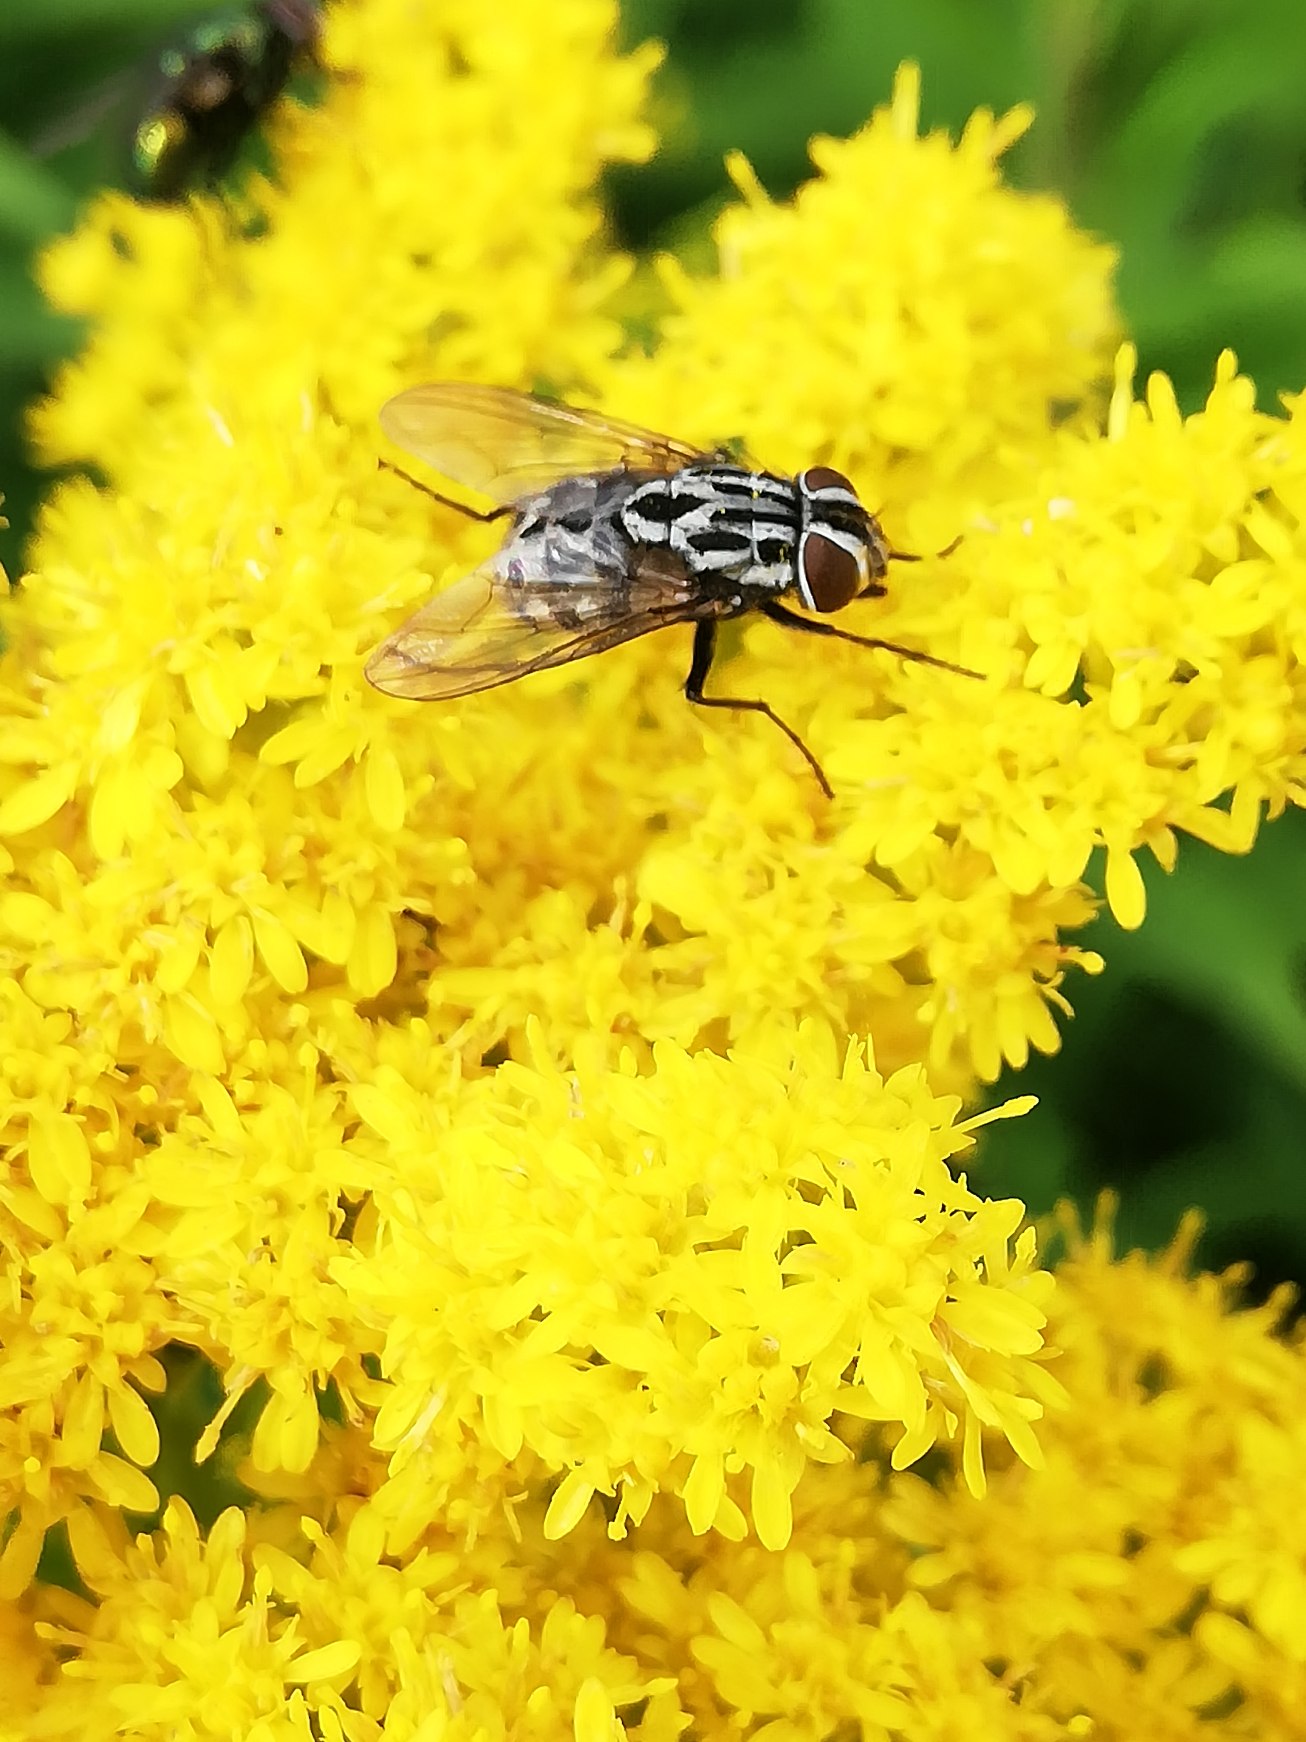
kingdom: Animalia
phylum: Arthropoda
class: Insecta
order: Diptera
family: Muscidae
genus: Graphomya
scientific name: Graphomya maculata
